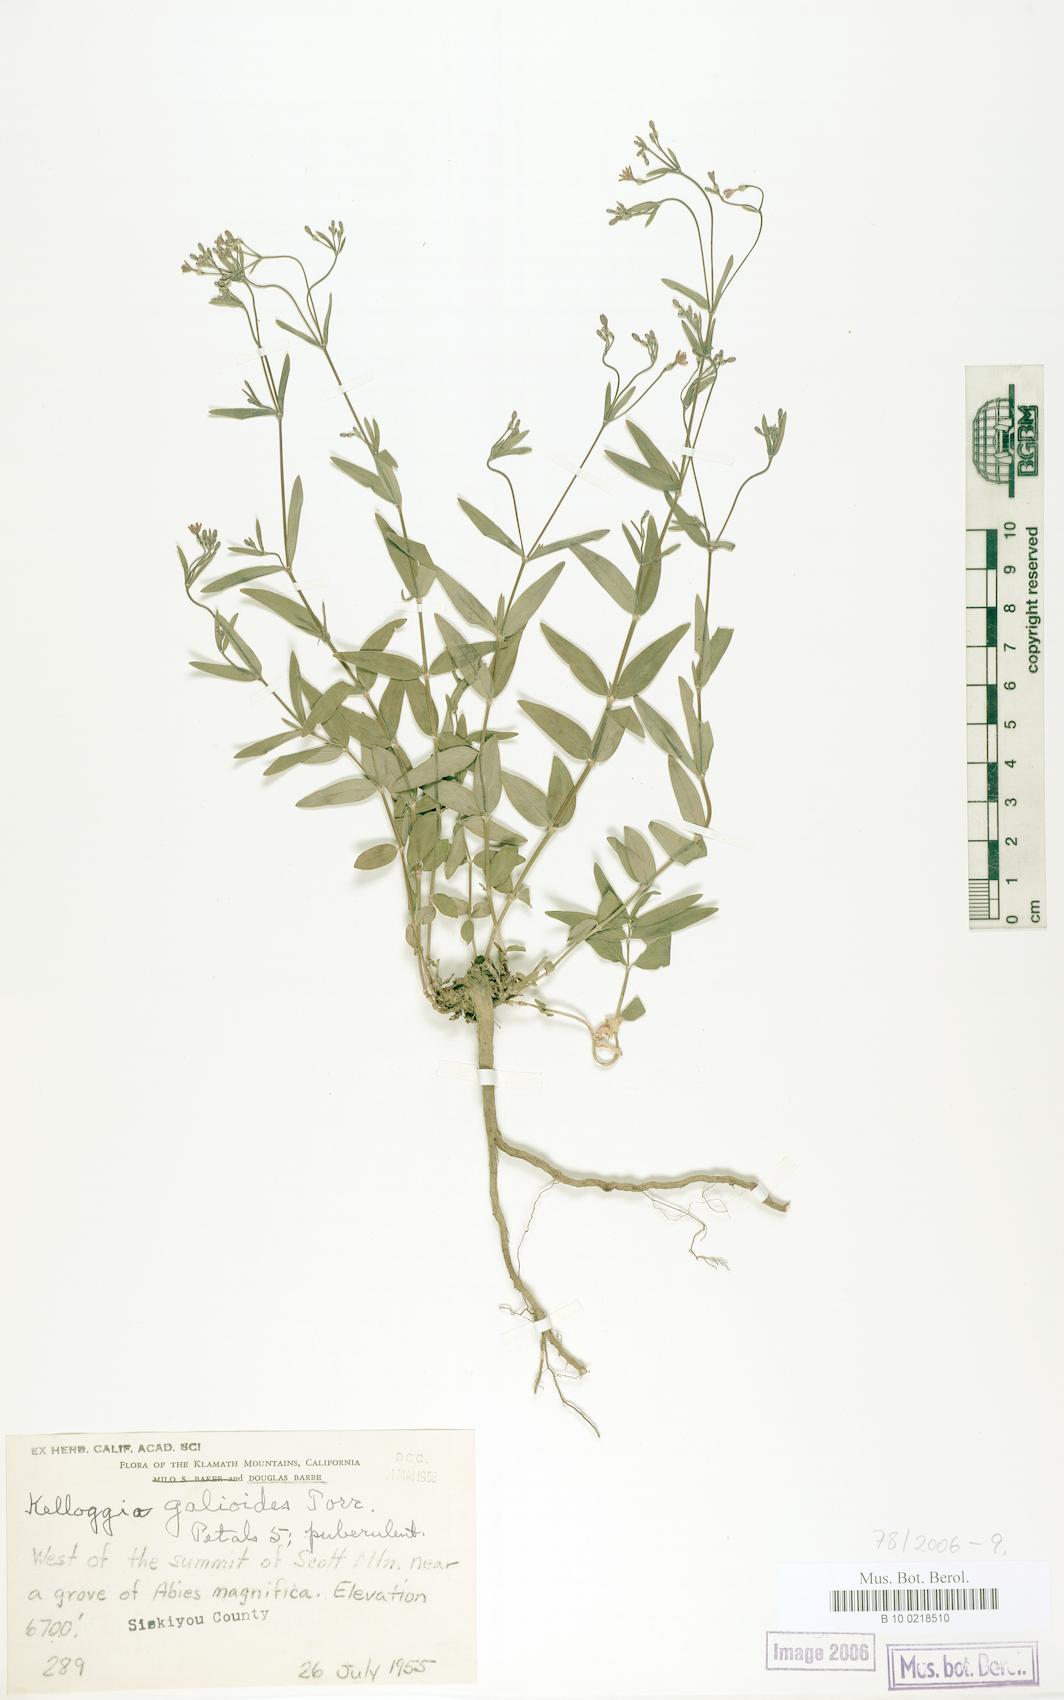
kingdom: Plantae
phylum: Tracheophyta
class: Magnoliopsida
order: Gentianales
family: Rubiaceae
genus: Kelloggia
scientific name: Kelloggia galioides
